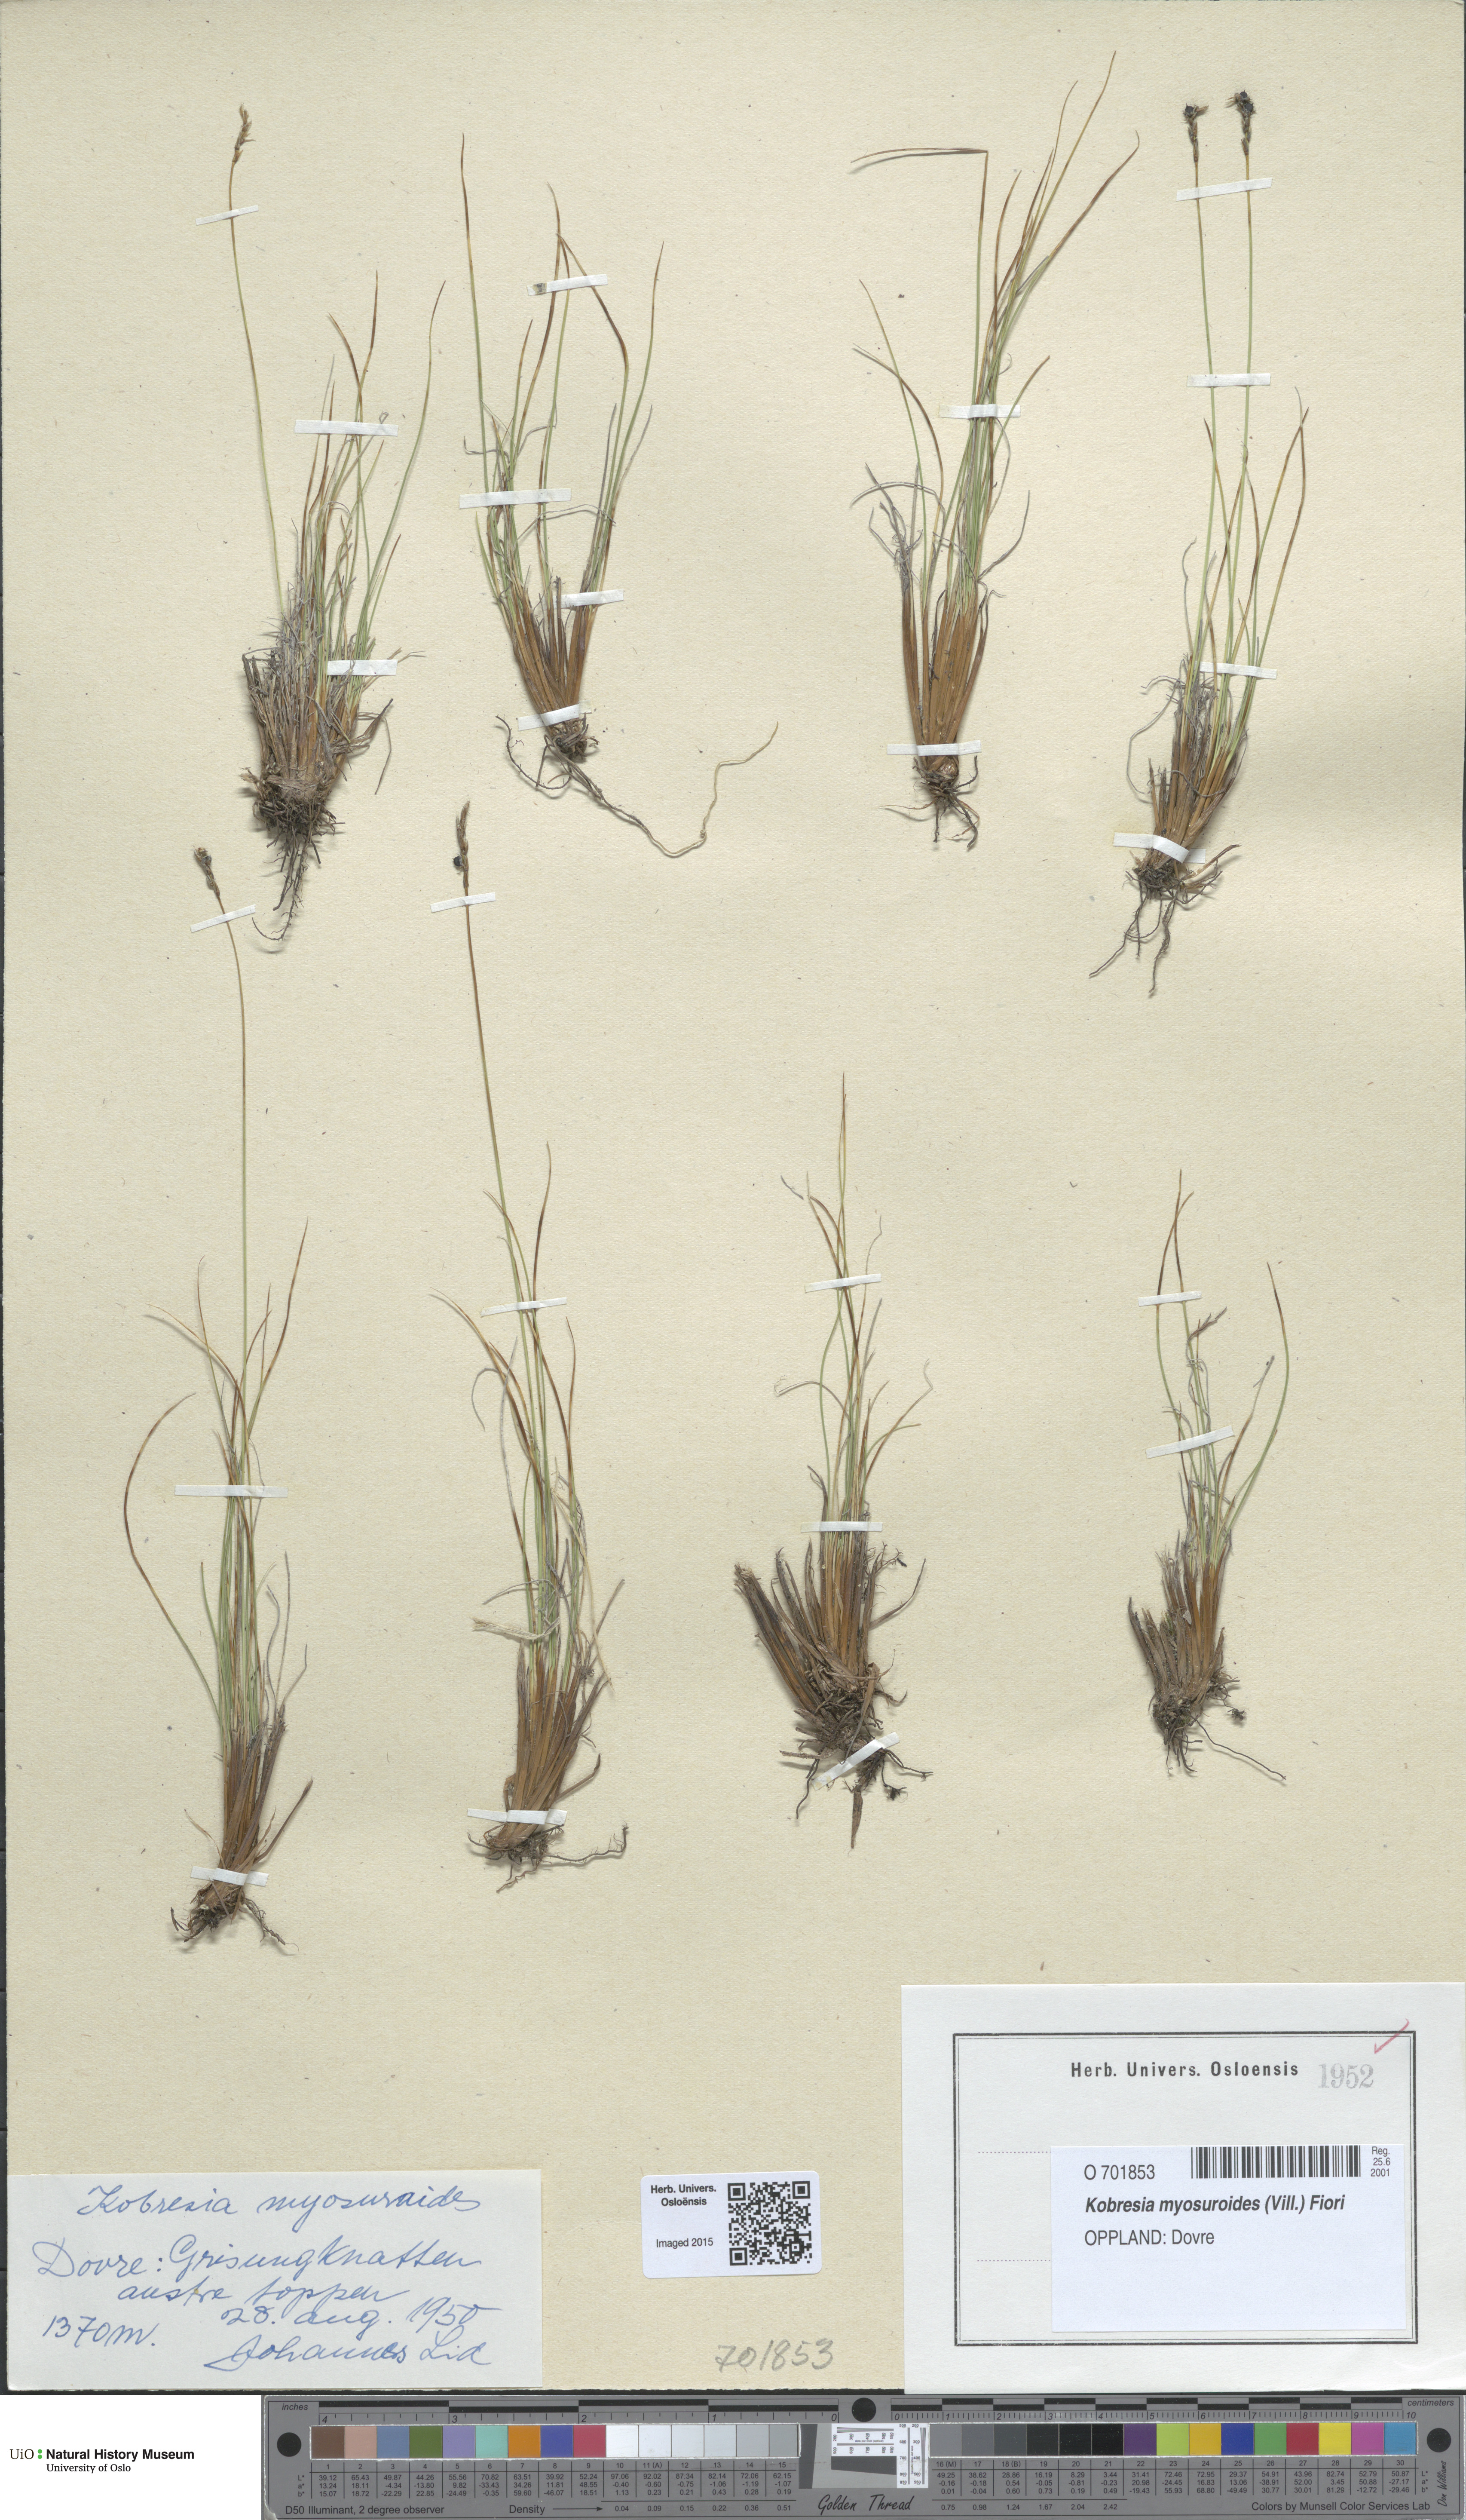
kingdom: Plantae
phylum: Tracheophyta
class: Liliopsida
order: Poales
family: Cyperaceae
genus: Carex
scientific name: Carex myosuroides
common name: Bellard's bog sedge
